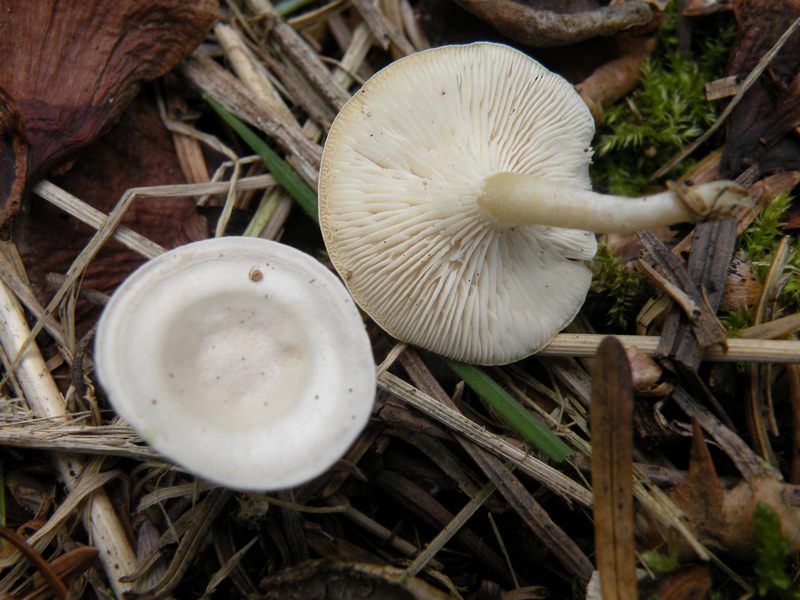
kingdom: Fungi
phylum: Basidiomycota
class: Agaricomycetes
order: Agaricales
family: Tricholomataceae
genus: Leucocybe
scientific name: Leucocybe candicans
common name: kridt-tragthat
